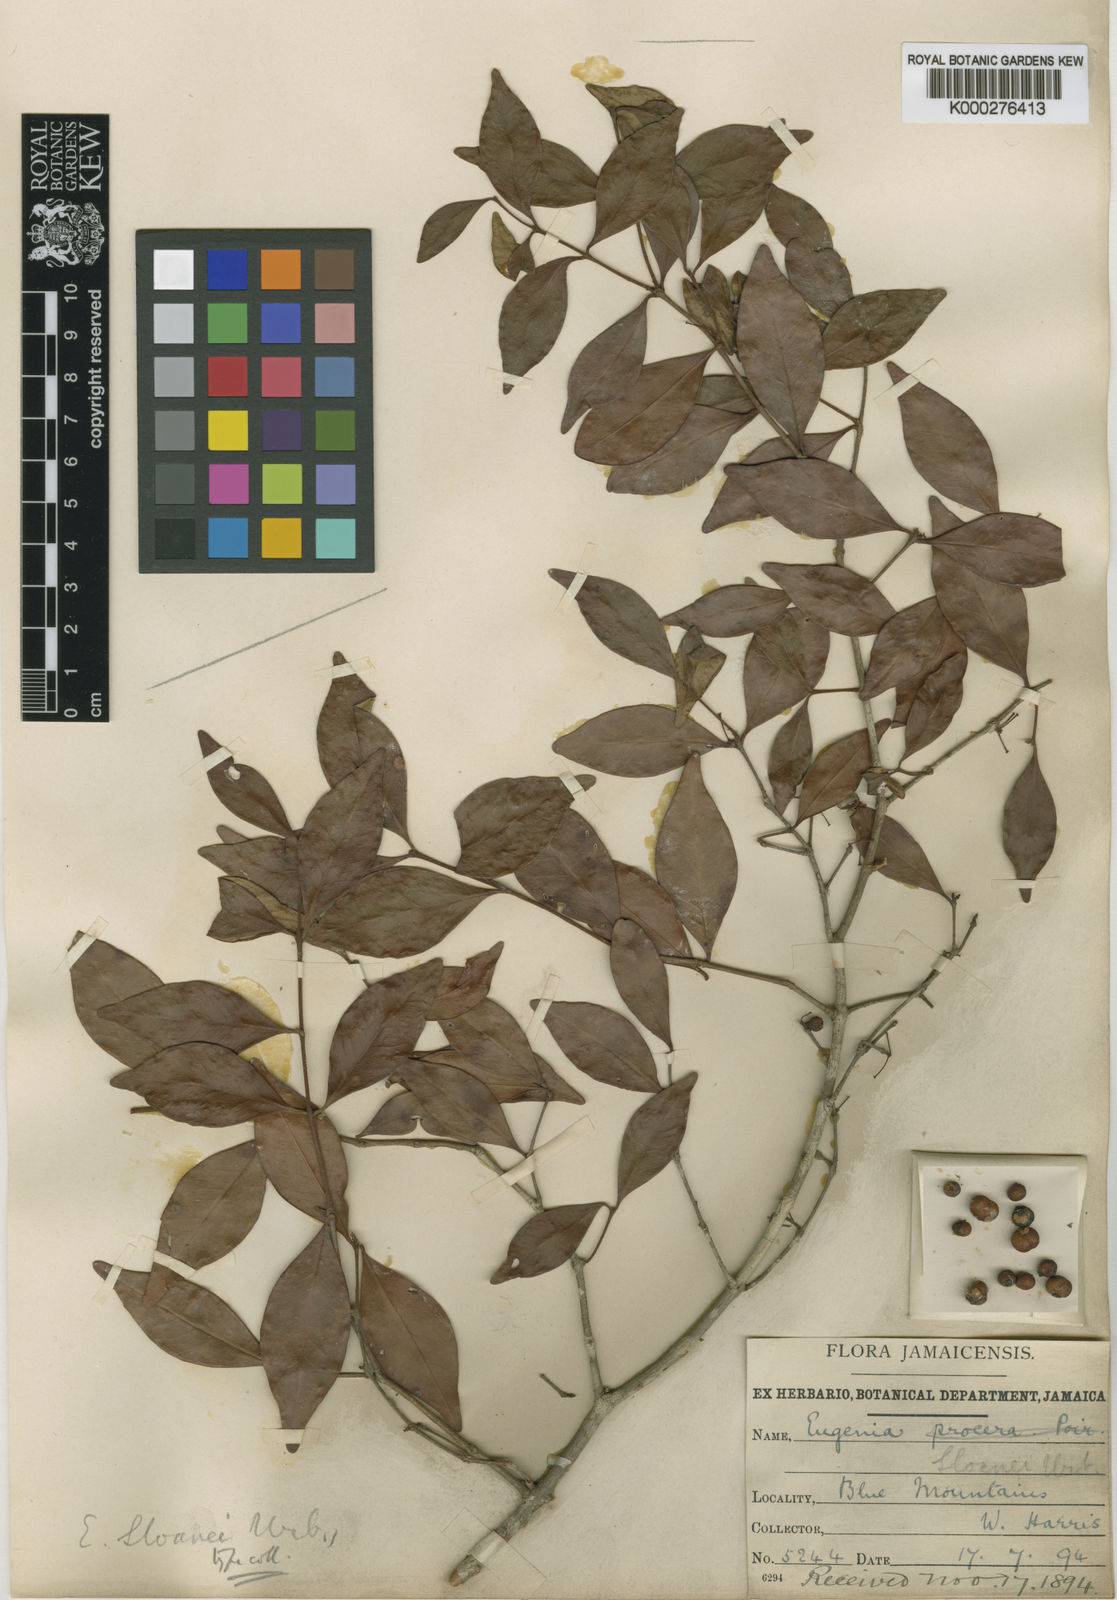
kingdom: Plantae
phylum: Tracheophyta
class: Magnoliopsida
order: Myrtales
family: Myrtaceae
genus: Eugenia
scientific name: Eugenia sloanei
